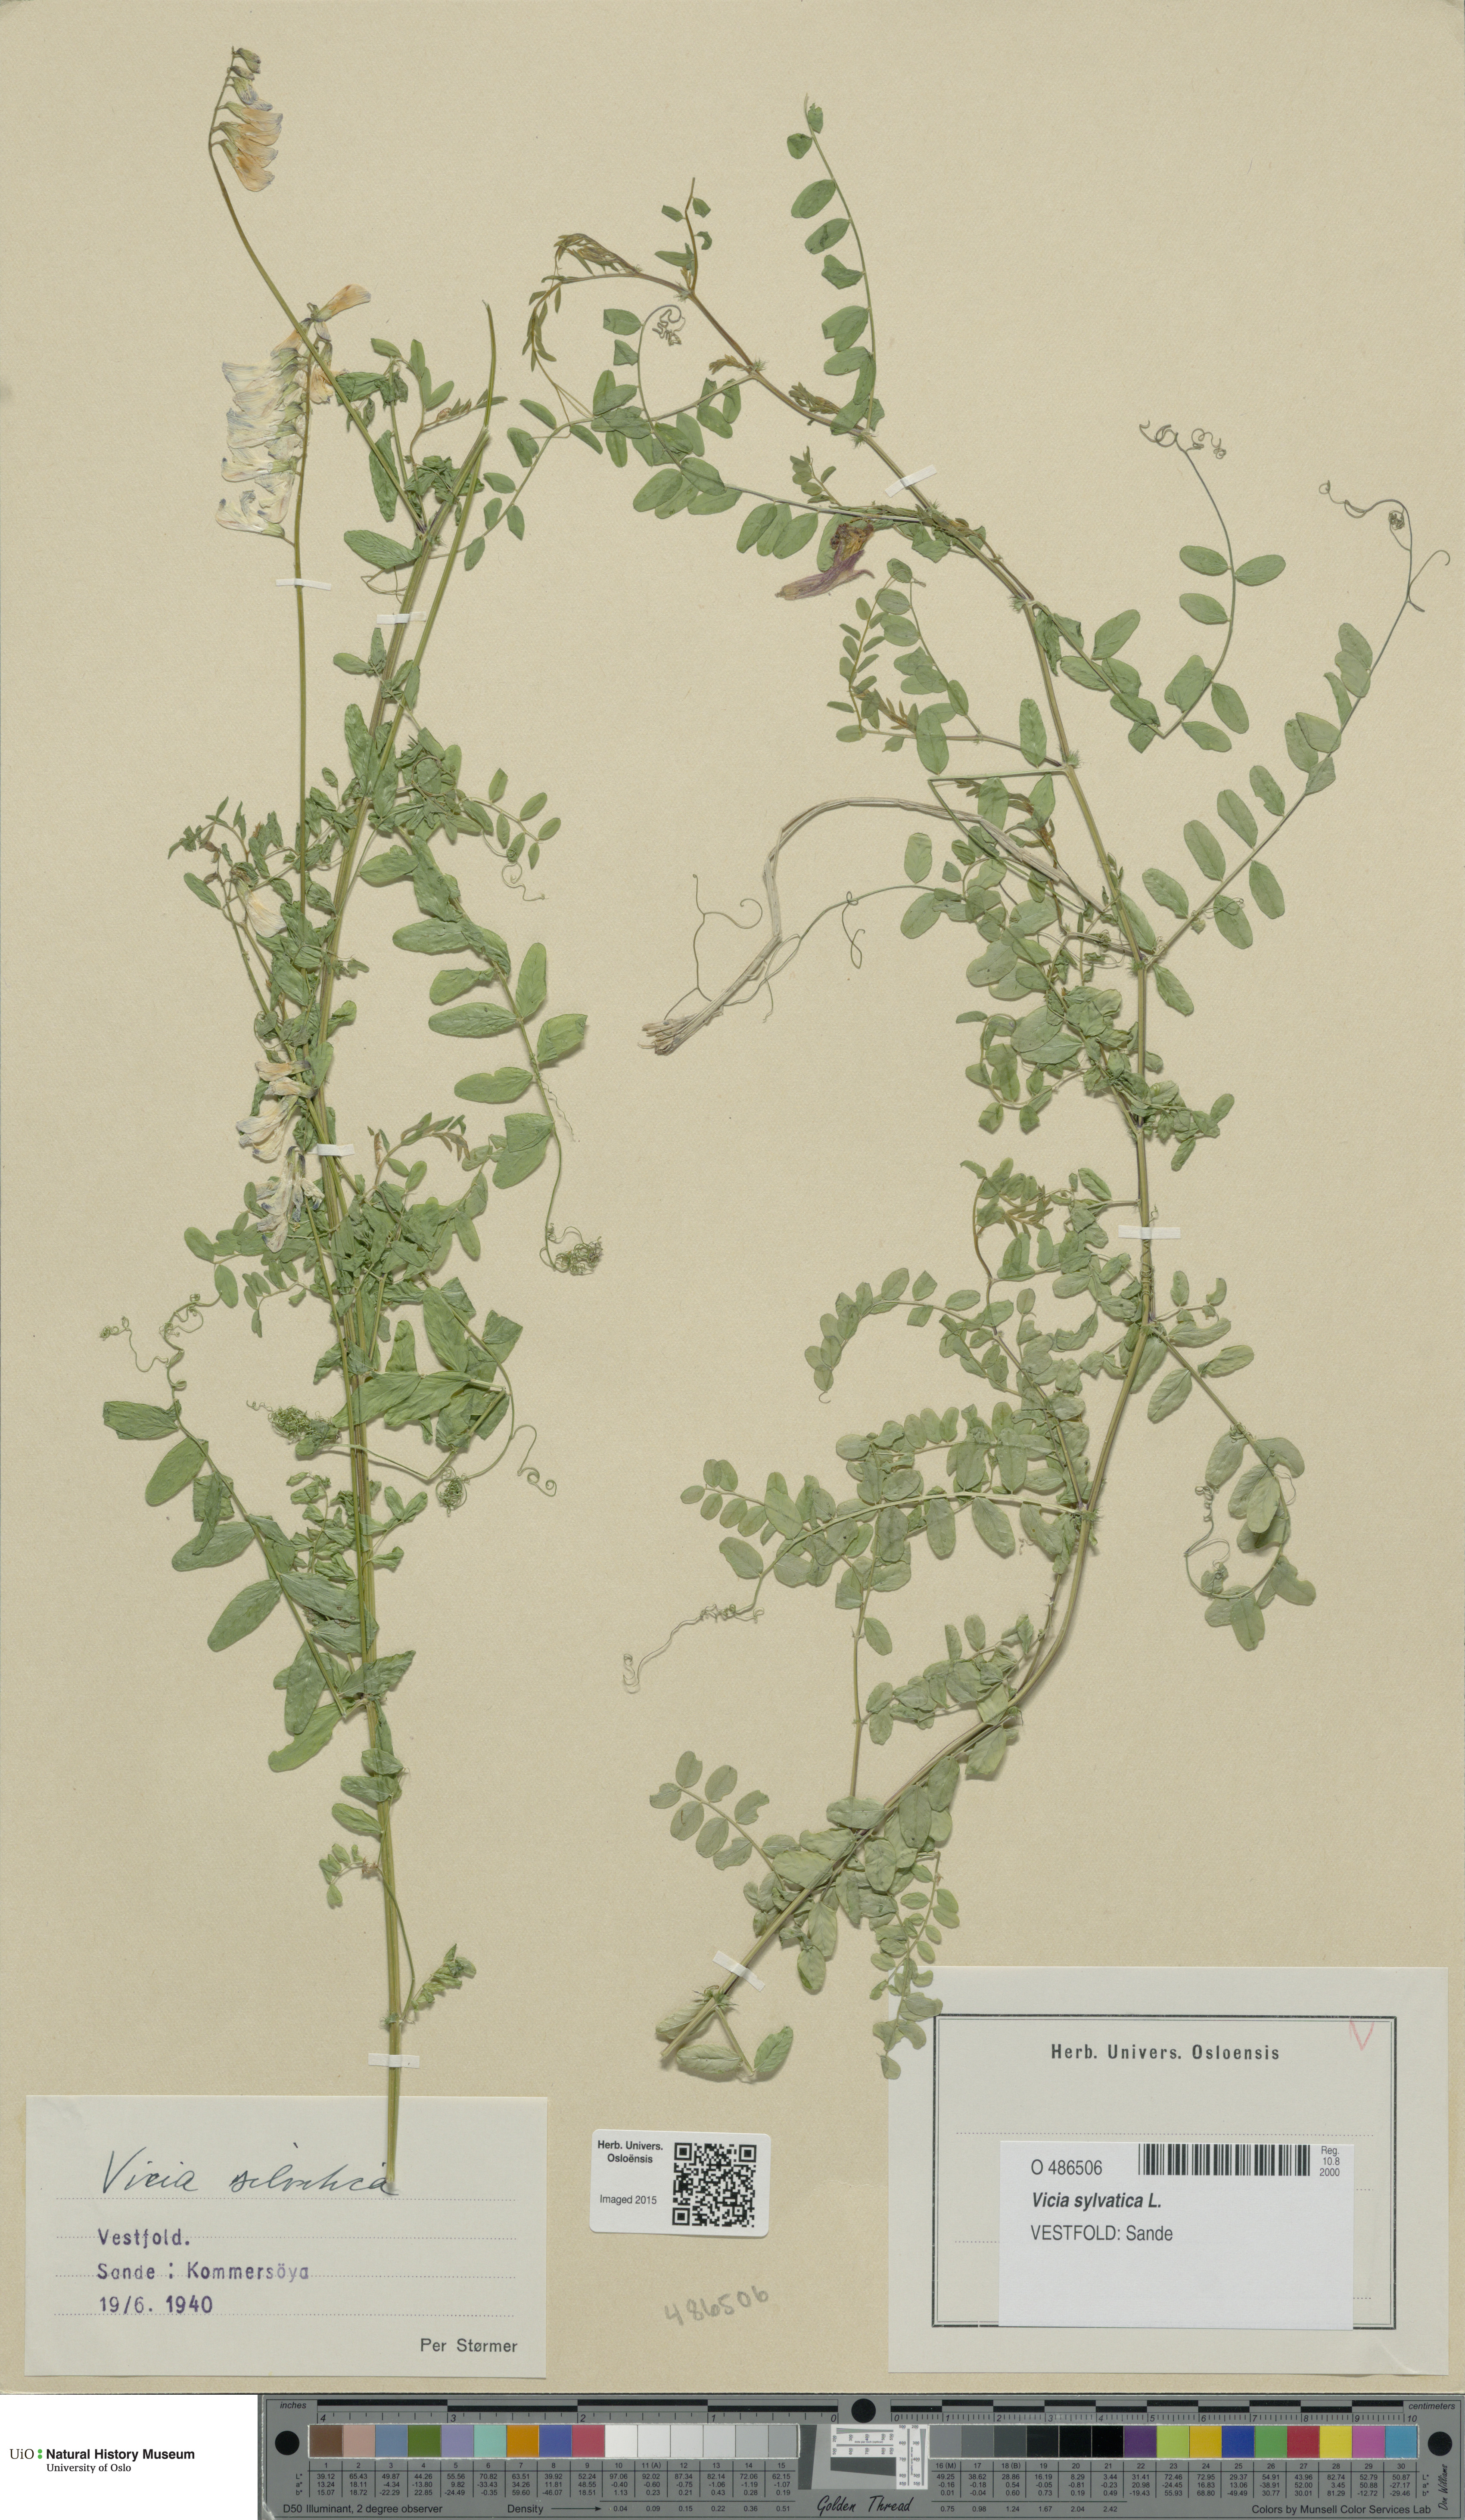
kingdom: Plantae
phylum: Tracheophyta
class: Magnoliopsida
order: Fabales
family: Fabaceae
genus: Vicia
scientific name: Vicia sylvatica
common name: Wood vetch
